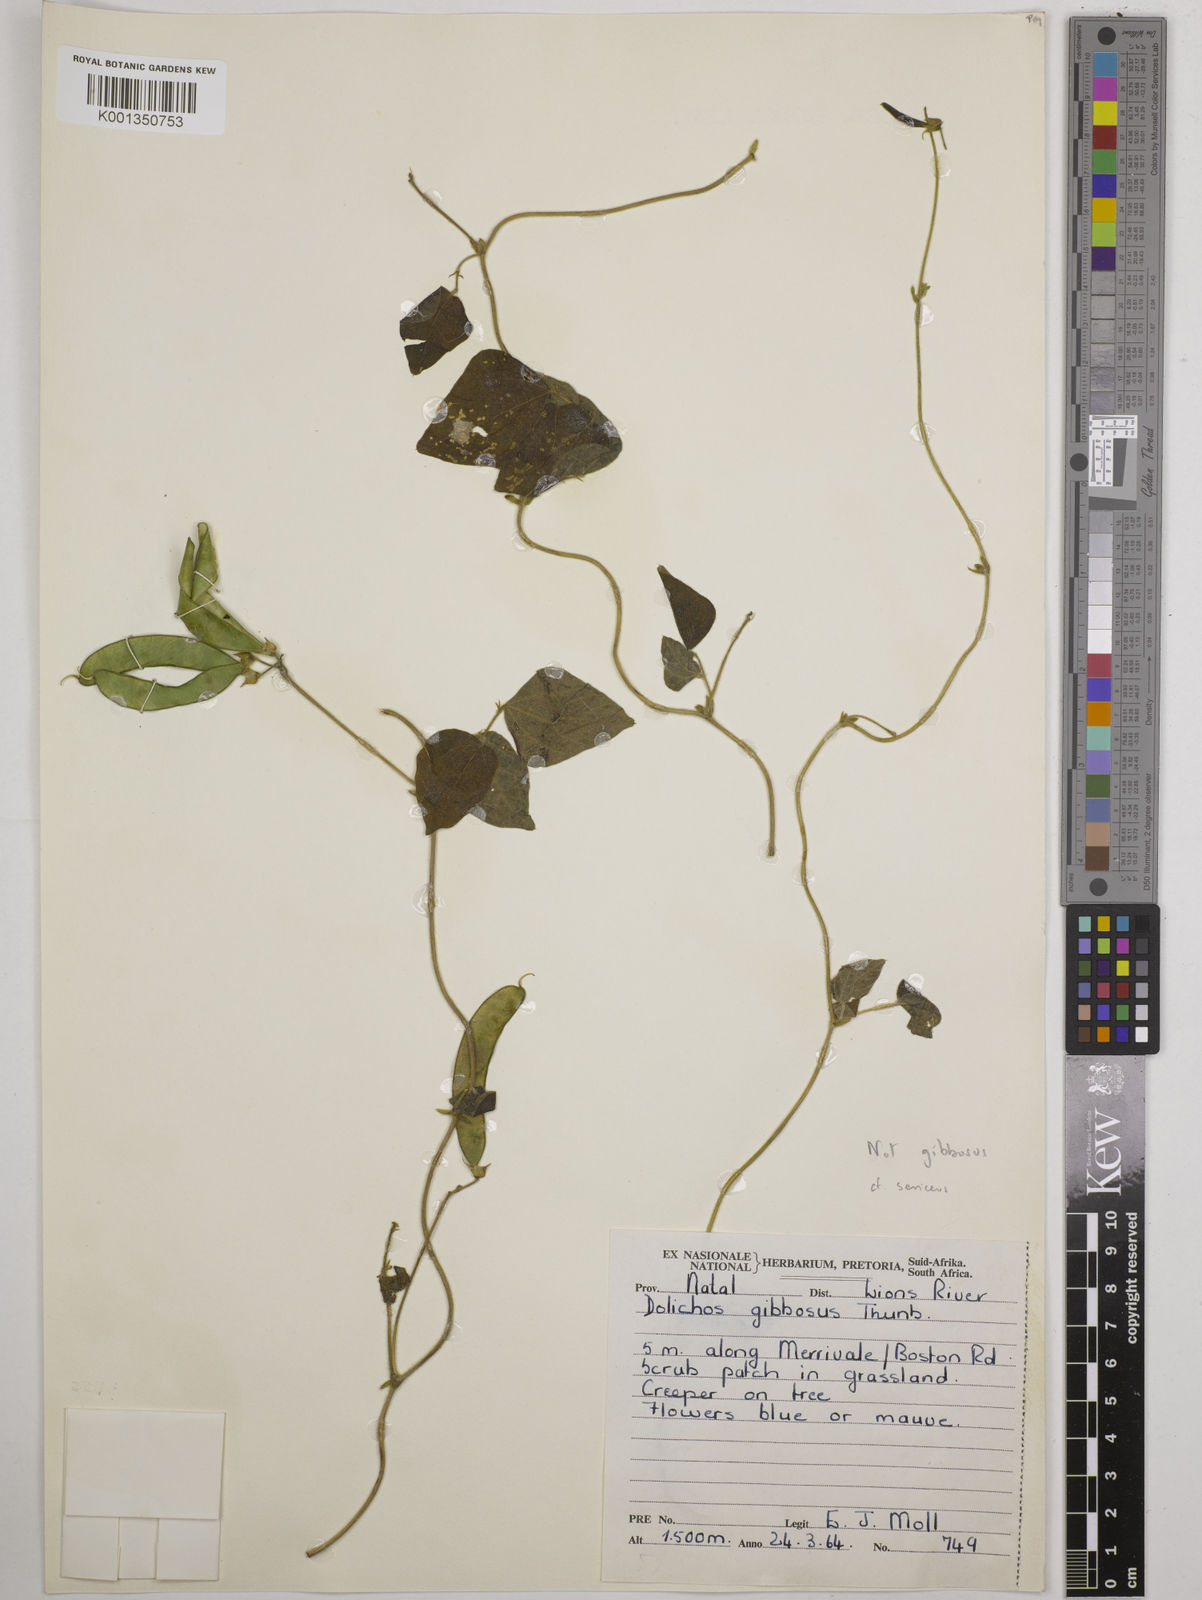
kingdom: Plantae
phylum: Tracheophyta
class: Magnoliopsida
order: Fabales
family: Fabaceae
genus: Dolichos
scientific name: Dolichos sericeus
